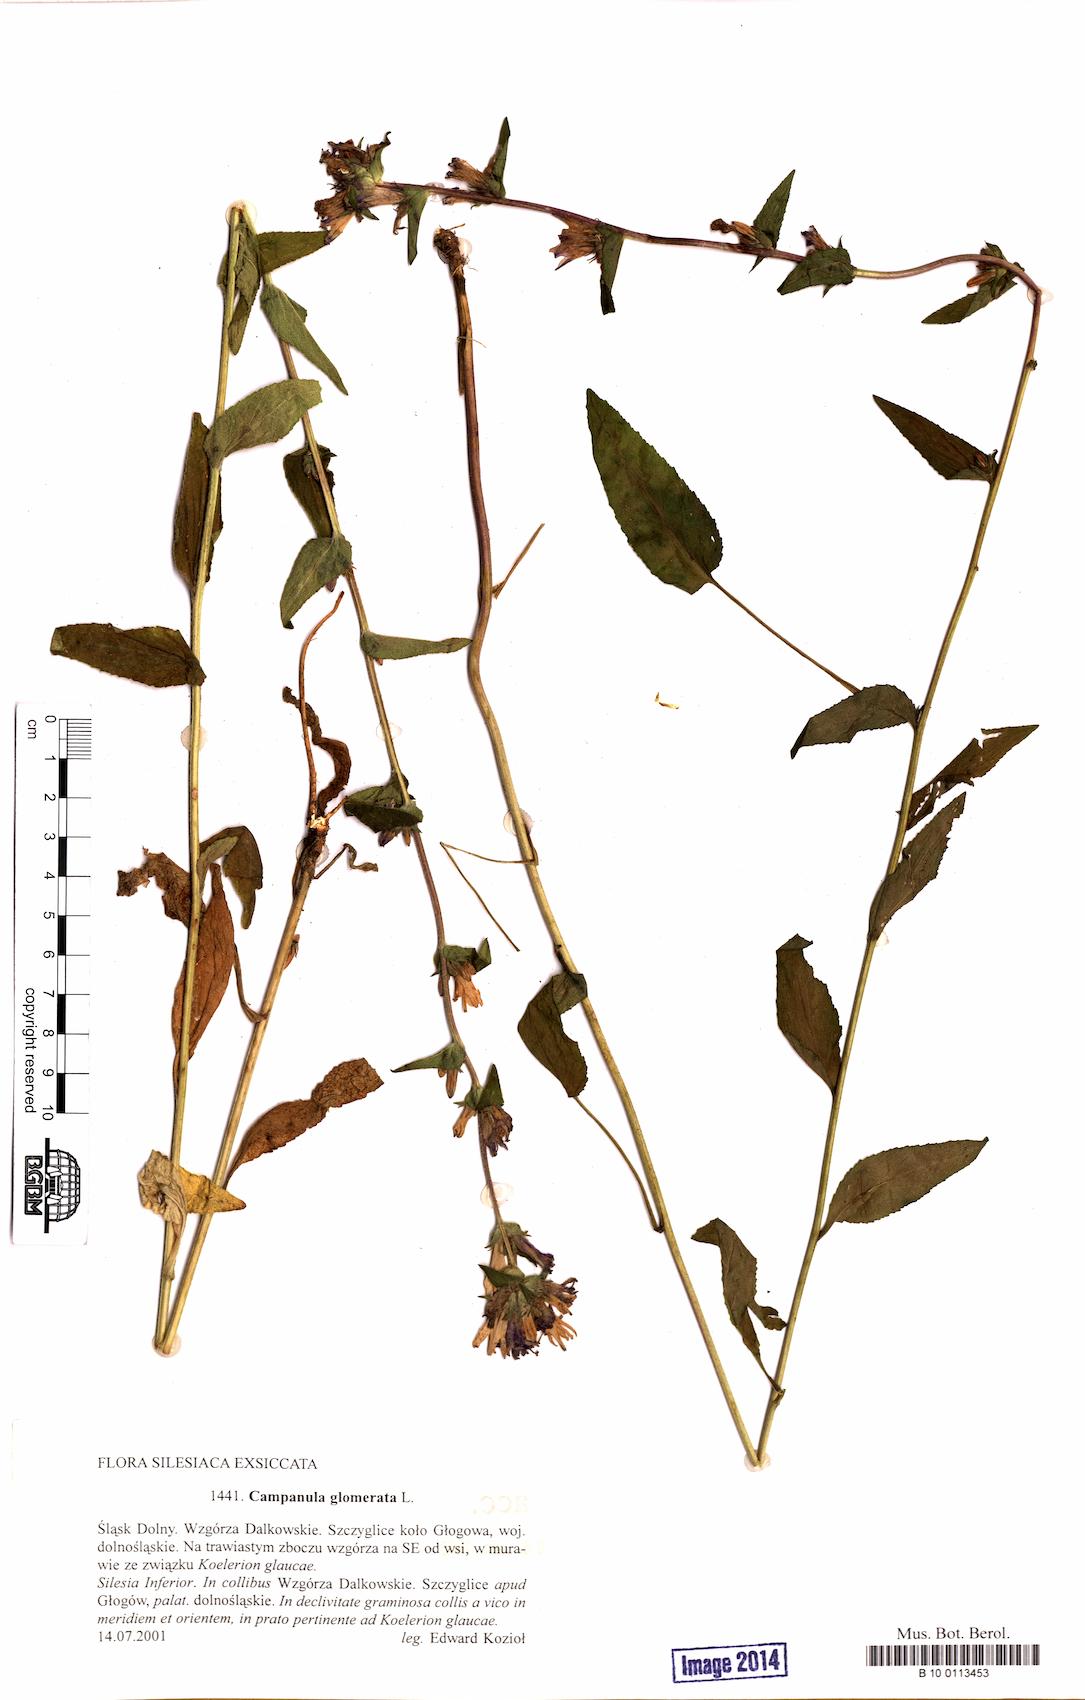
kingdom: Plantae
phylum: Tracheophyta
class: Magnoliopsida
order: Asterales
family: Campanulaceae
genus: Campanula
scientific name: Campanula glomerata
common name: Clustered bellflower
